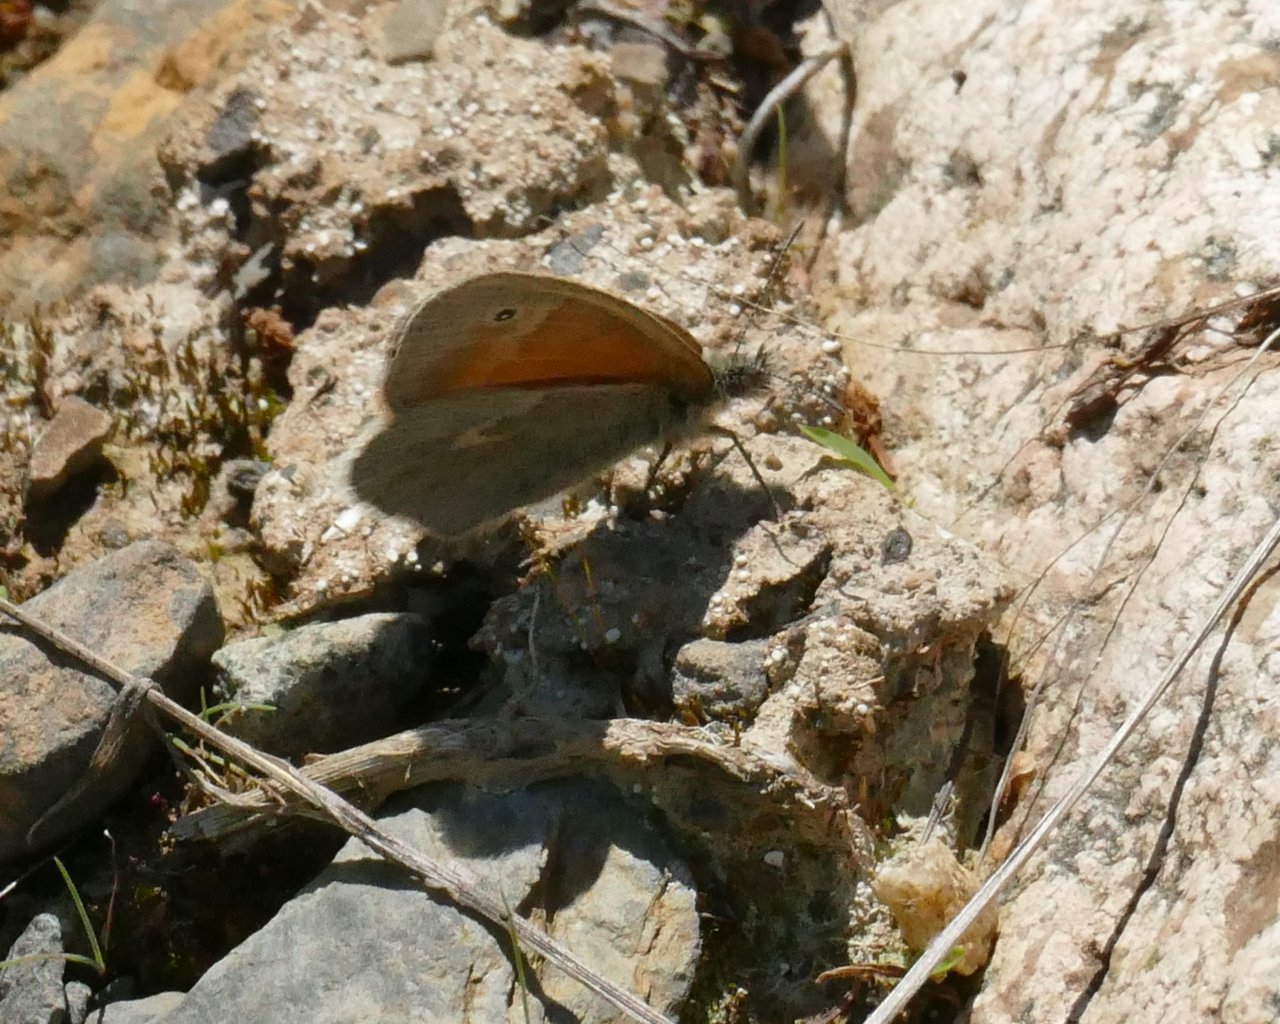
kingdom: Animalia
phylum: Arthropoda
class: Insecta
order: Lepidoptera
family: Nymphalidae
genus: Coenonympha
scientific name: Coenonympha tullia
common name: Large Heath
